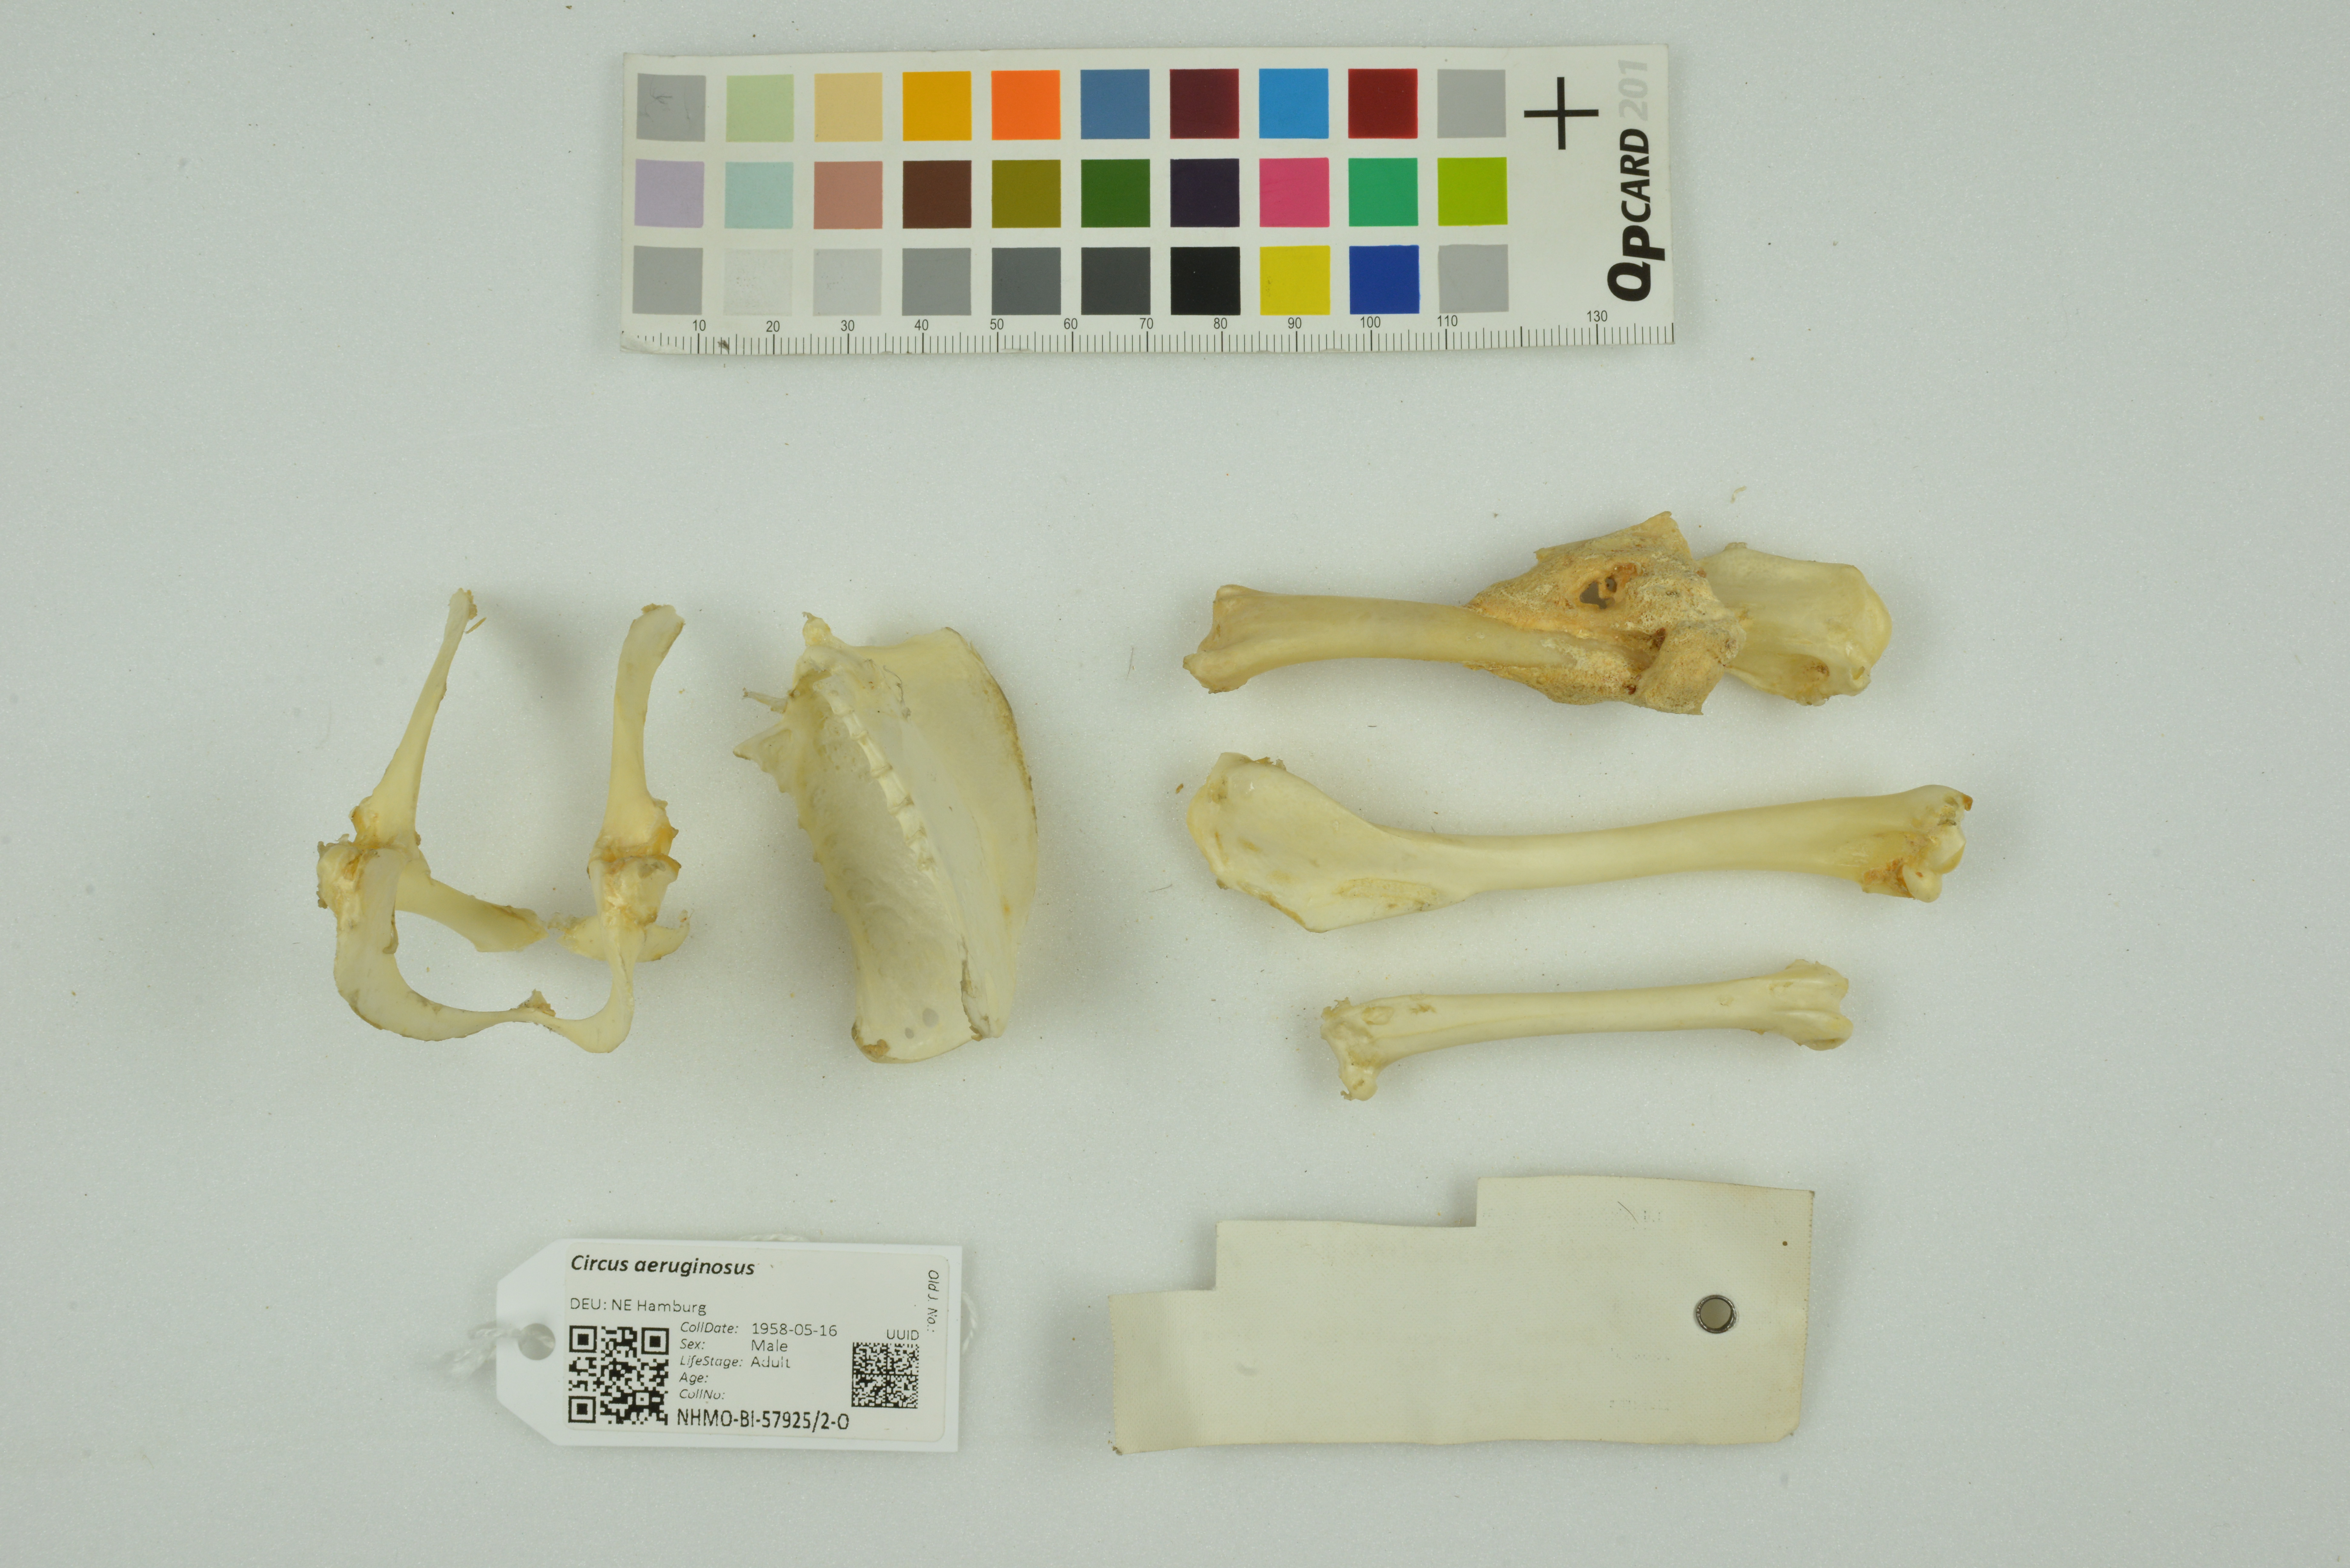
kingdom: Animalia
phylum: Chordata
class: Aves
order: Accipitriformes
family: Accipitridae
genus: Circus
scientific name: Circus aeruginosus
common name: Western marsh harrier
